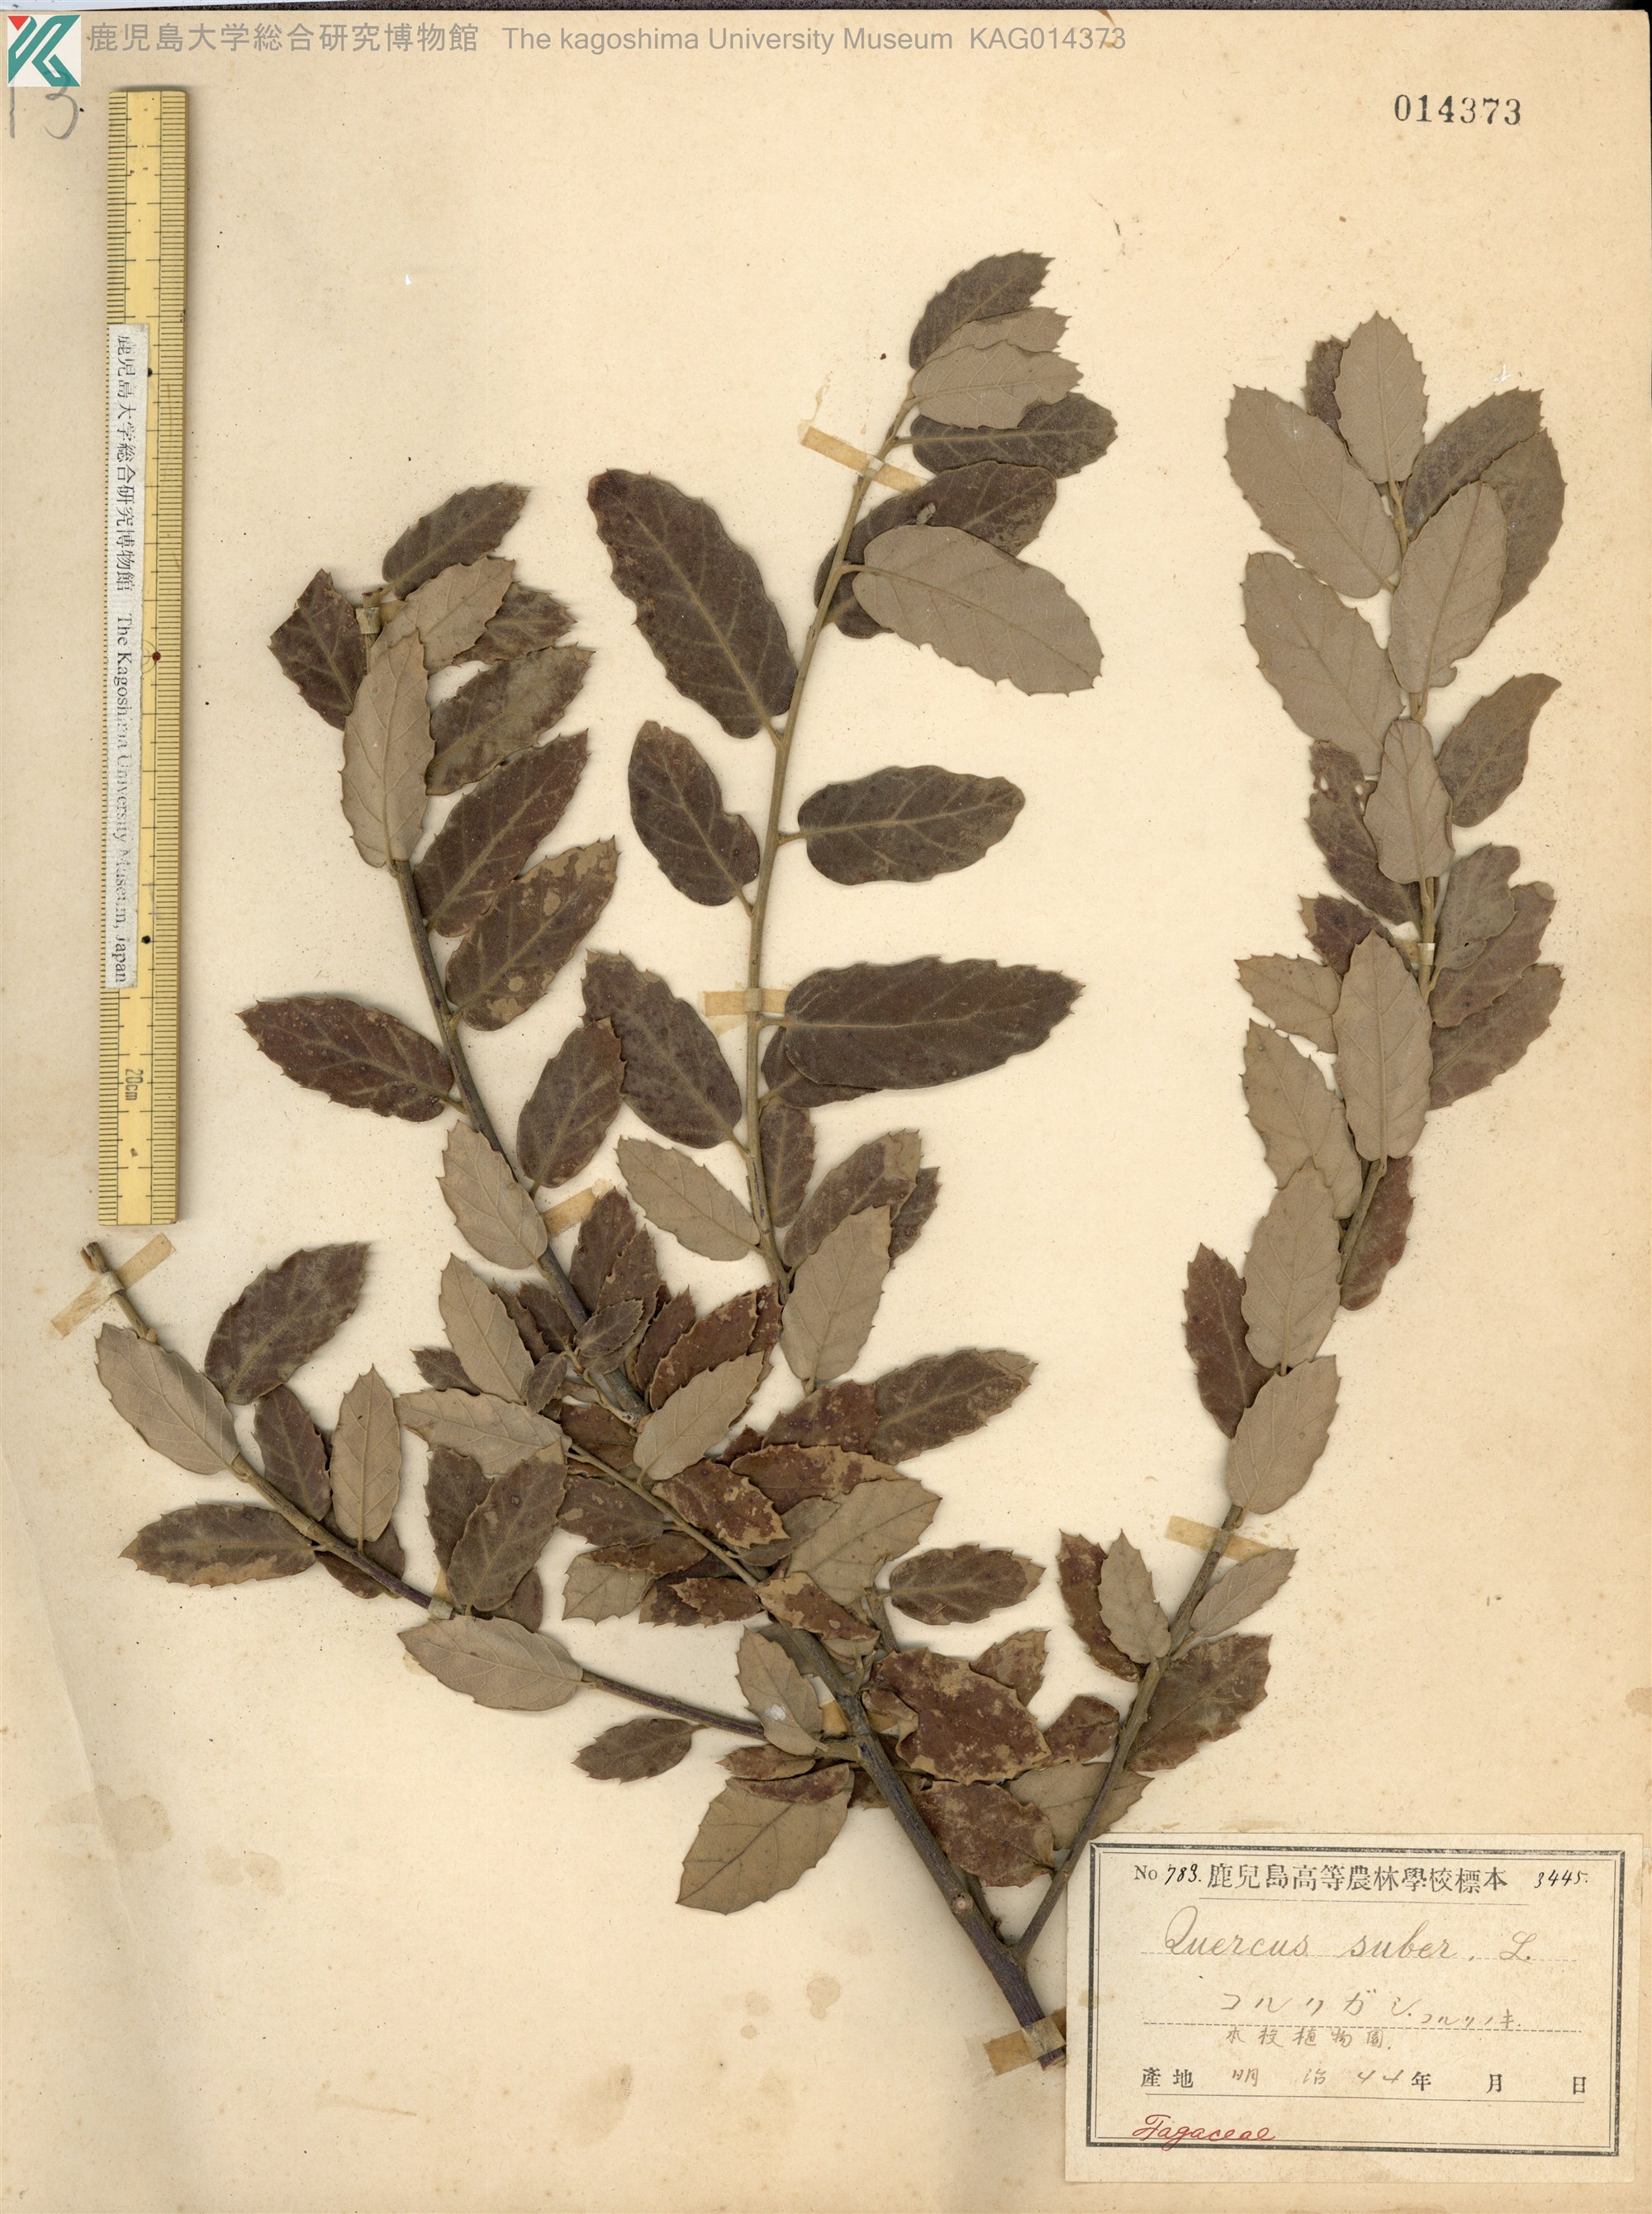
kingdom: Plantae
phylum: Tracheophyta
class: Magnoliopsida
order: Fagales
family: Fagaceae
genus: Quercus
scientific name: Quercus suber
